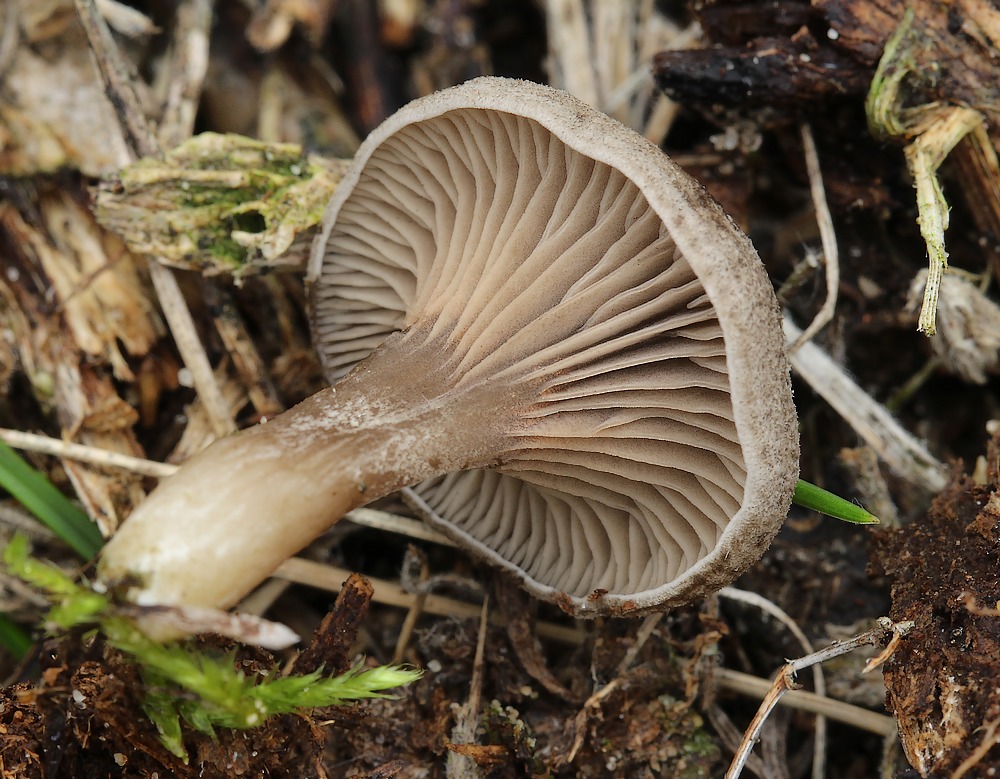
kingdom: Fungi
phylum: Basidiomycota
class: Agaricomycetes
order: Agaricales
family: Entolomataceae
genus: Entoloma
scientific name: Entoloma undatum
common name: bæltet rødblad
